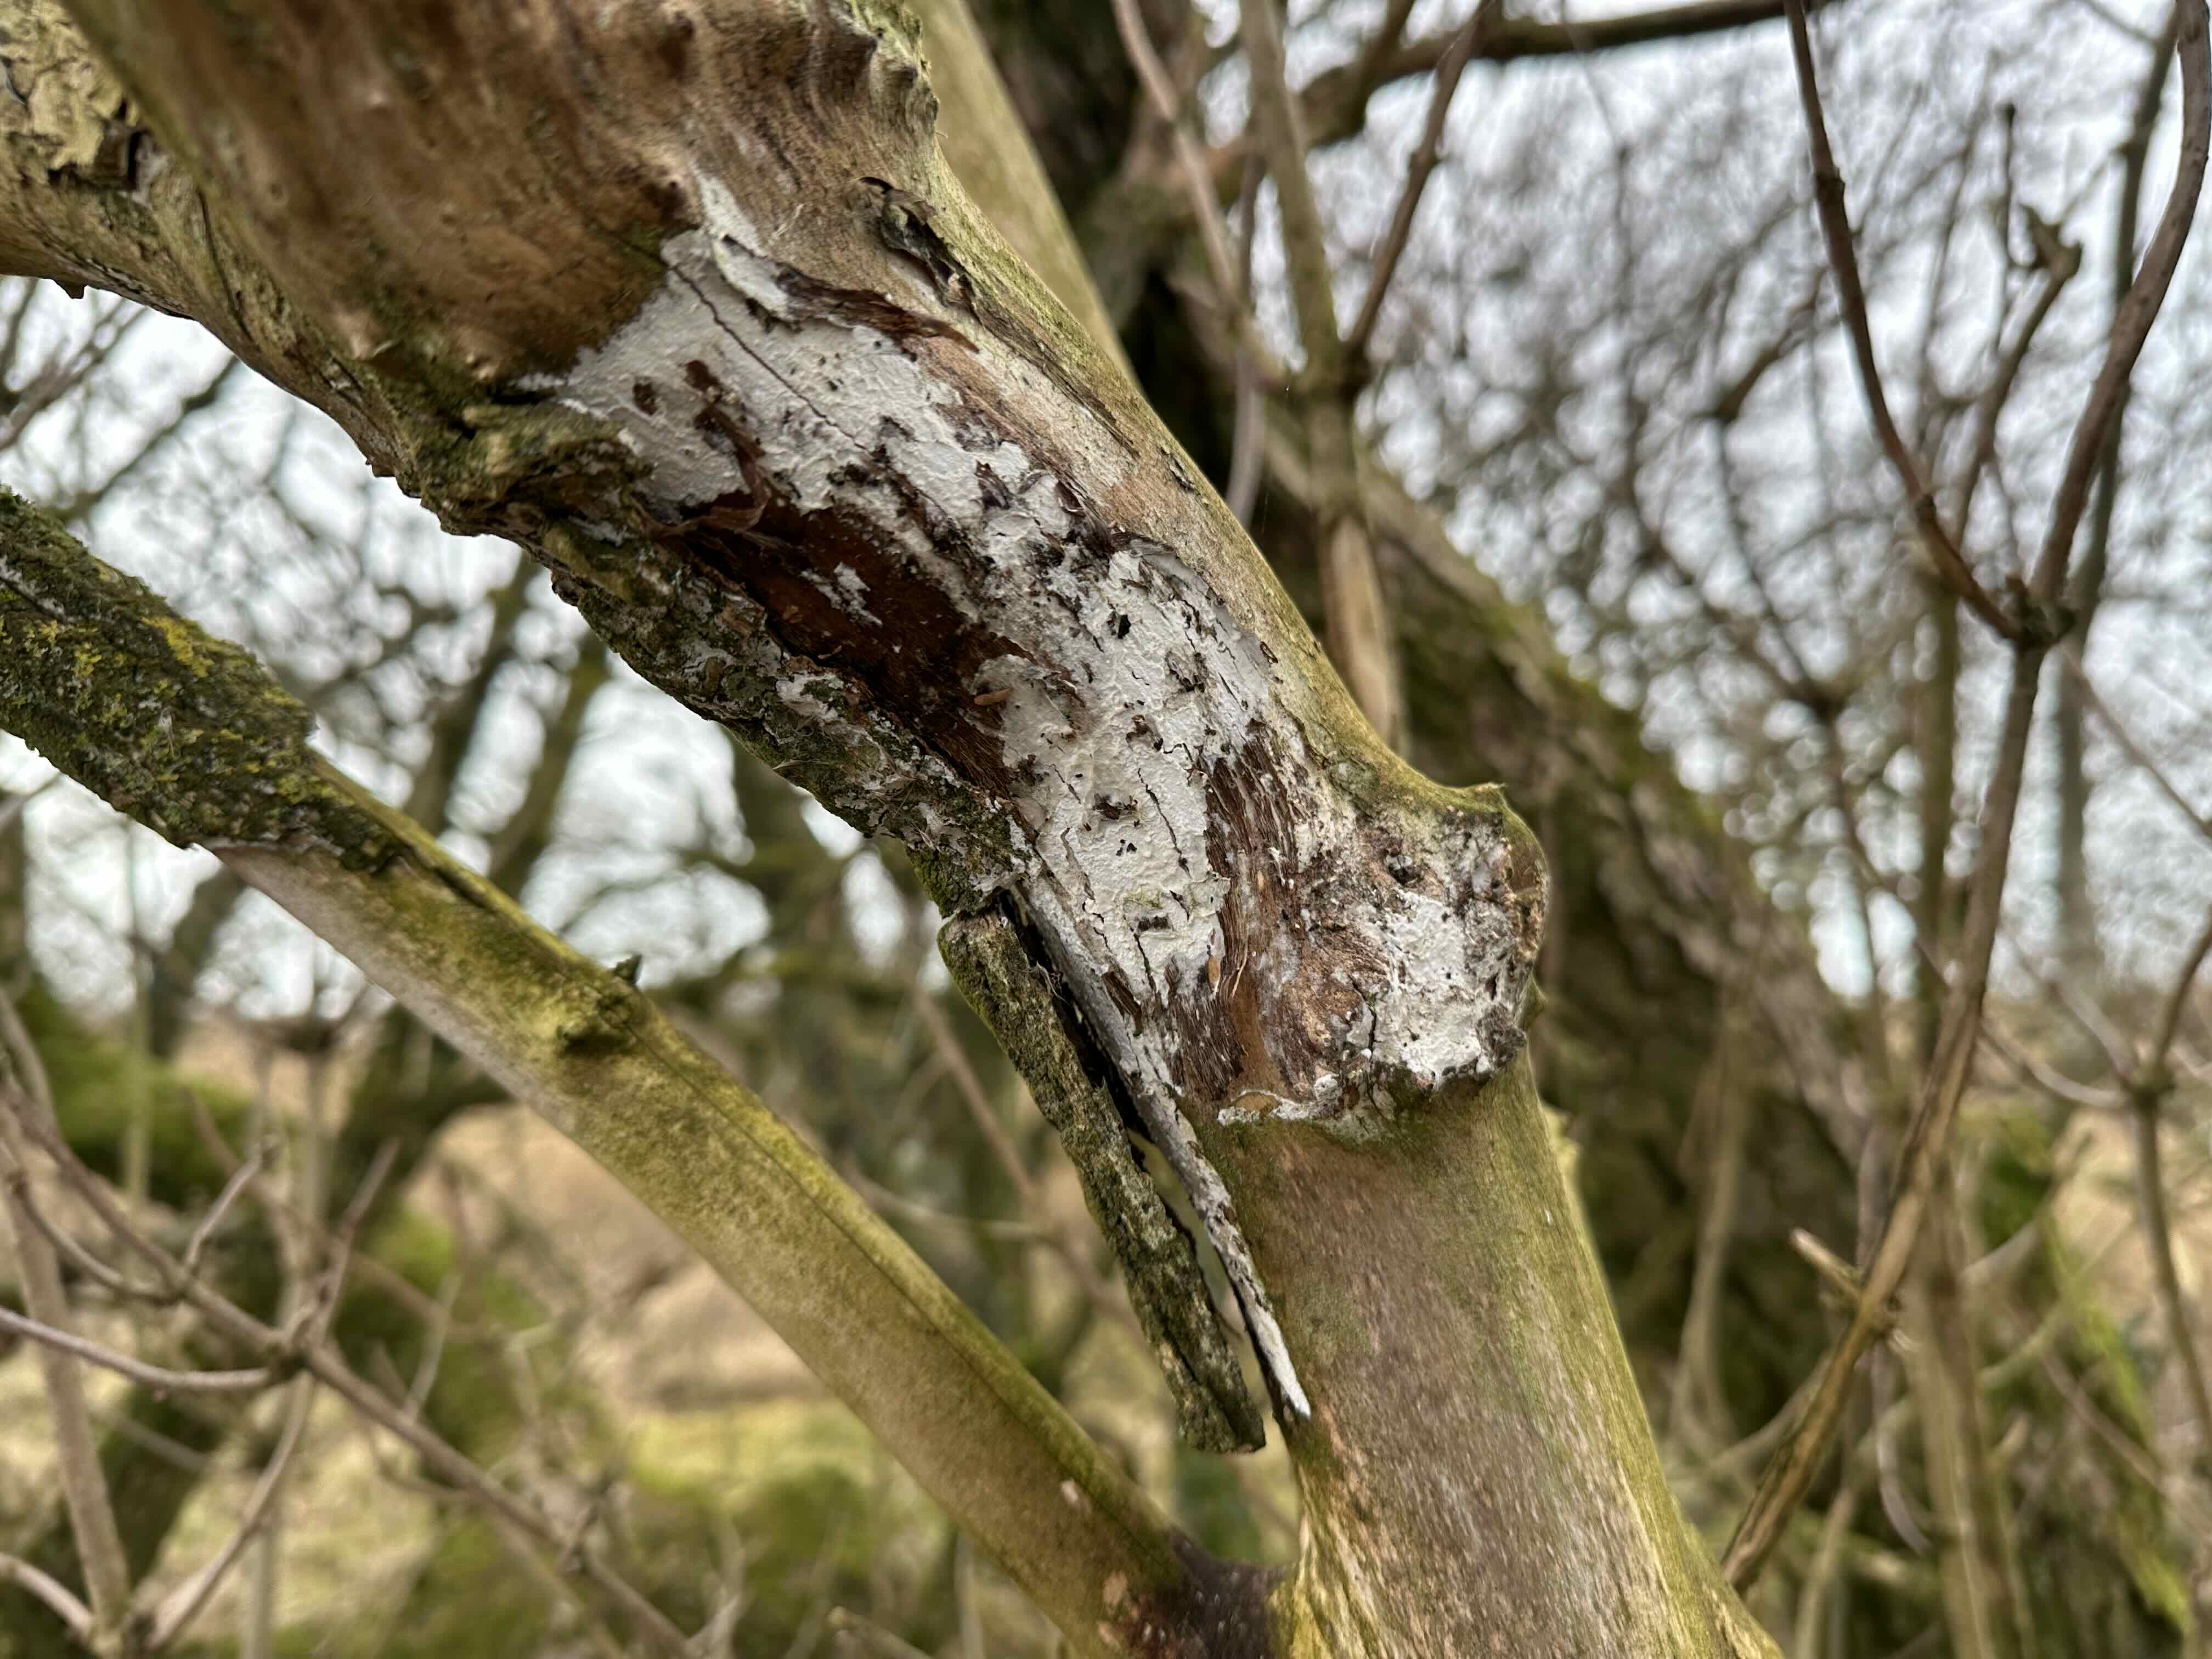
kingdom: Fungi
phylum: Basidiomycota
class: Agaricomycetes
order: Corticiales
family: Corticiaceae
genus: Lyomyces
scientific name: Lyomyces sambuci
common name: almindelig hyldehinde
